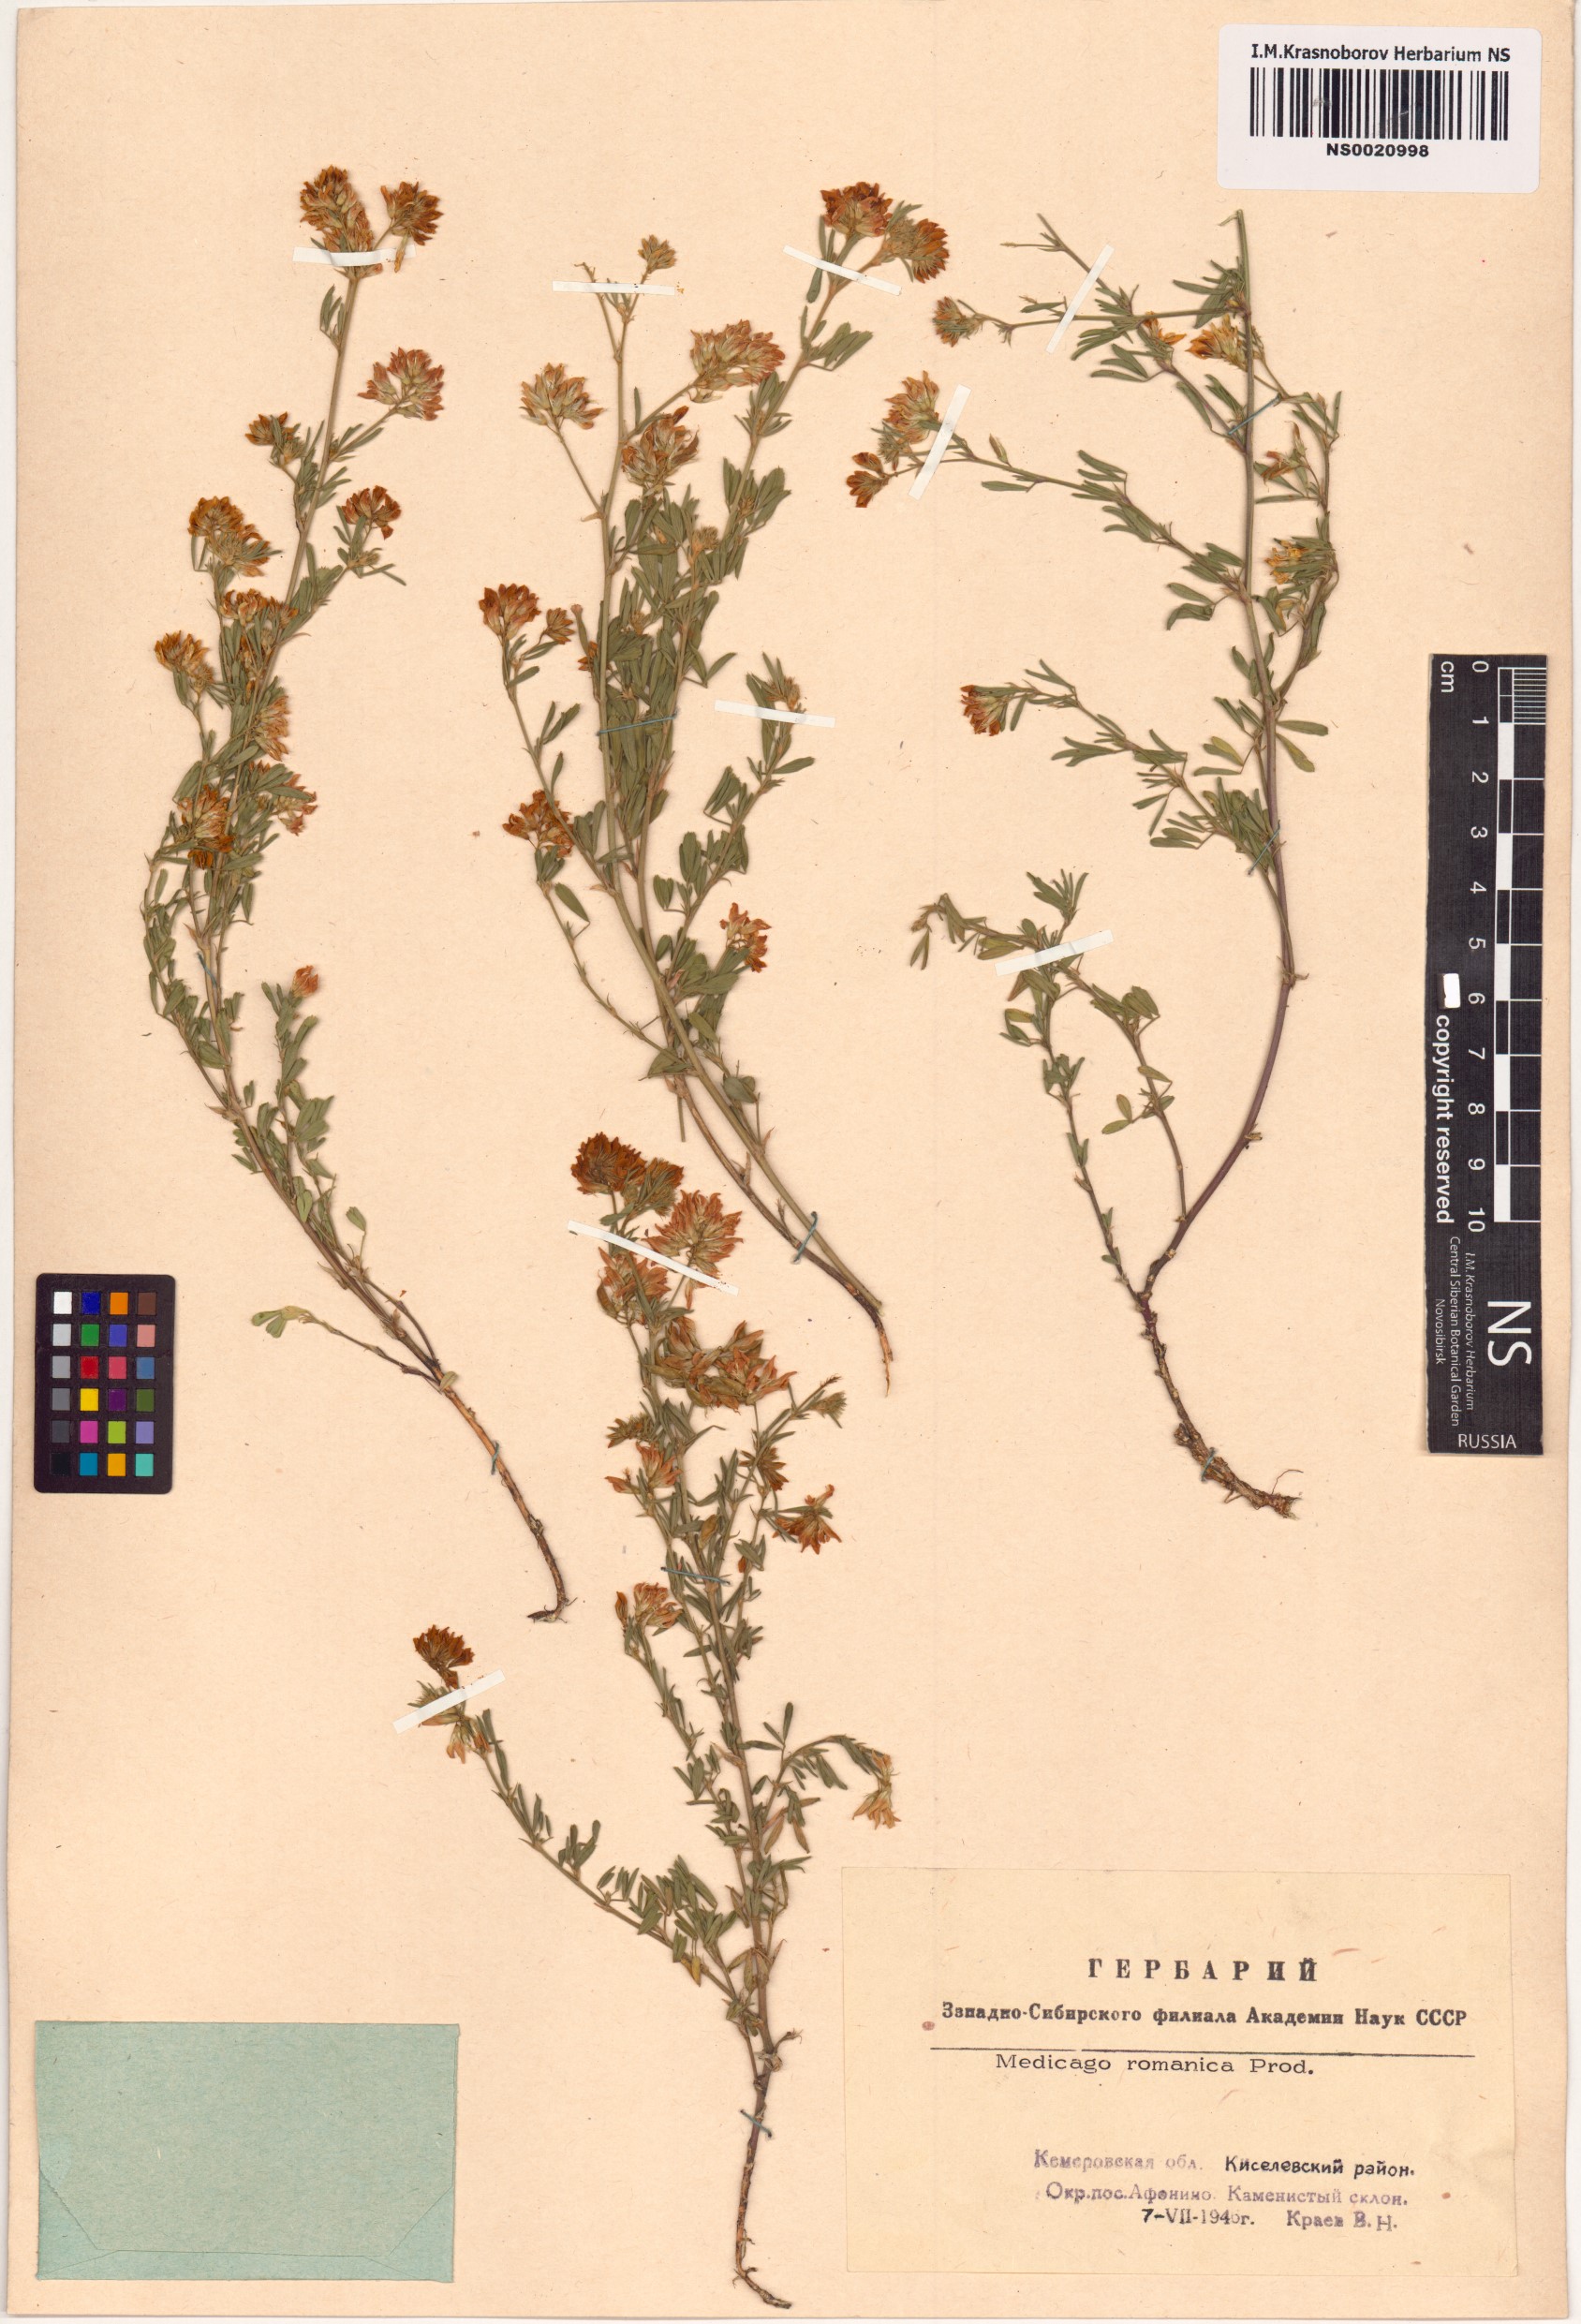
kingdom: Plantae
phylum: Tracheophyta
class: Magnoliopsida
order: Fabales
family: Fabaceae
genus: Medicago
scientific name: Medicago falcata
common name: Sickle medick
